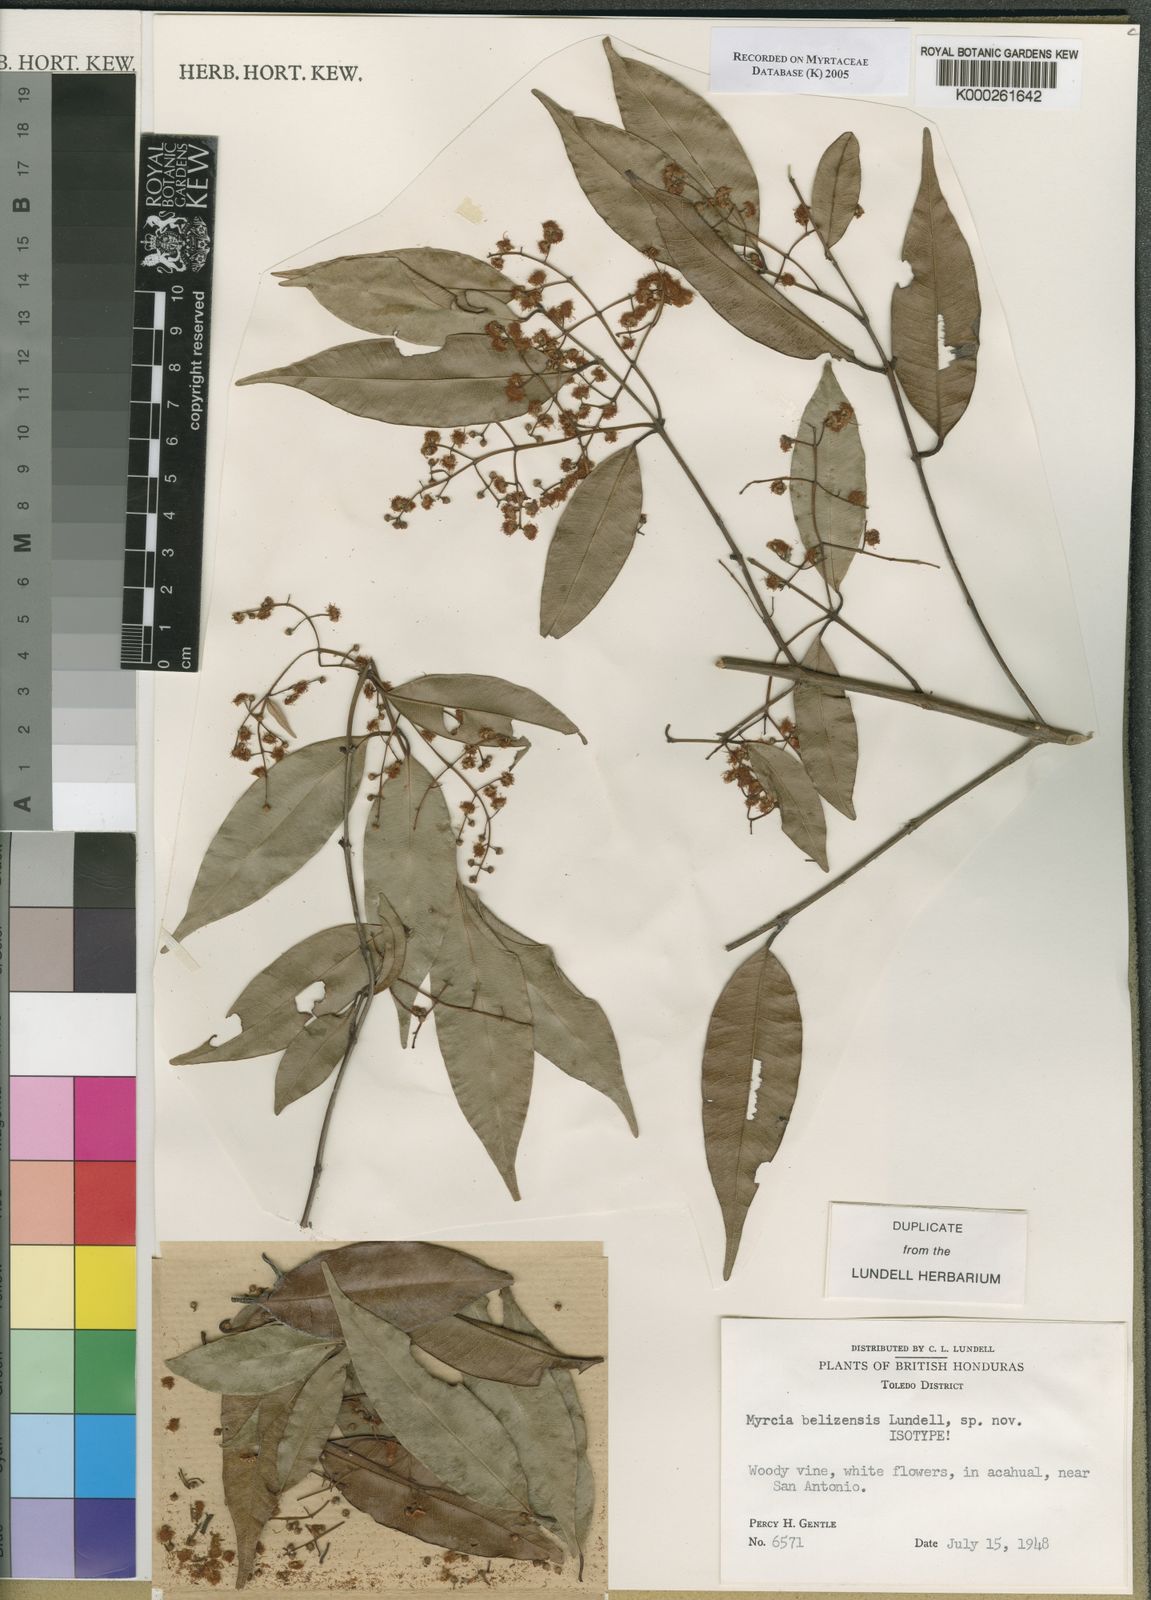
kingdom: Plantae
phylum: Tracheophyta
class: Magnoliopsida
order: Myrtales
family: Myrtaceae
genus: Myrcia
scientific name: Myrcia splendens
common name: Surinam cherry
